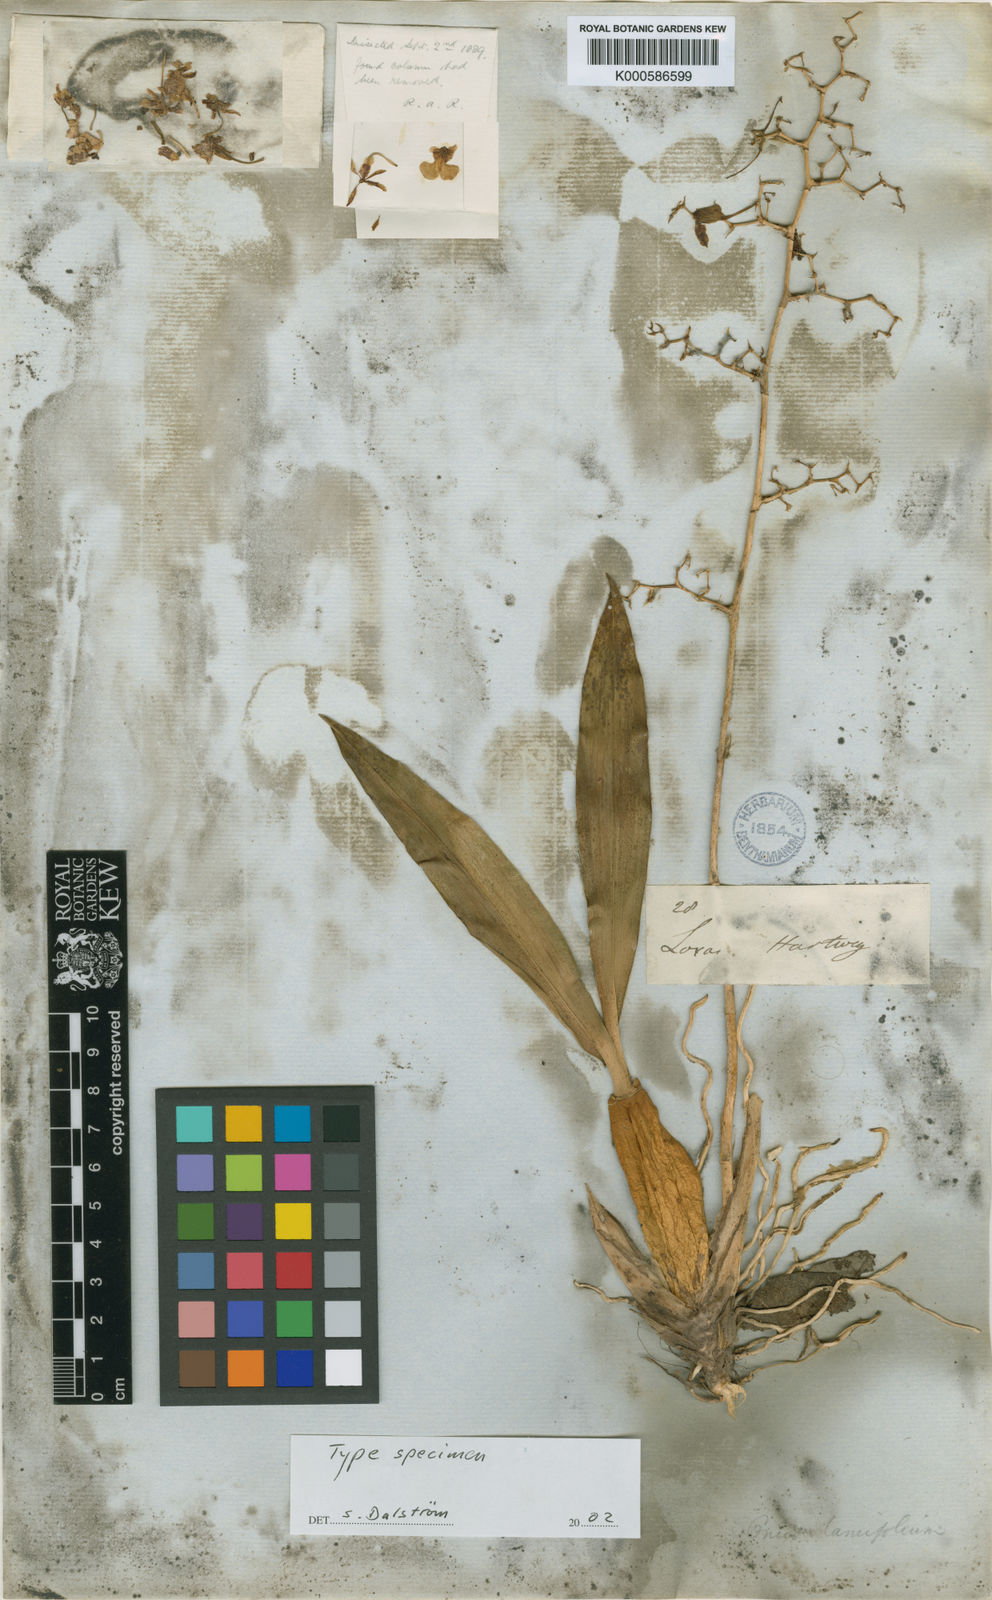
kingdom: Plantae
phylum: Tracheophyta
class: Liliopsida
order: Asparagales
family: Orchidaceae
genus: Oncidium
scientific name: Oncidium
